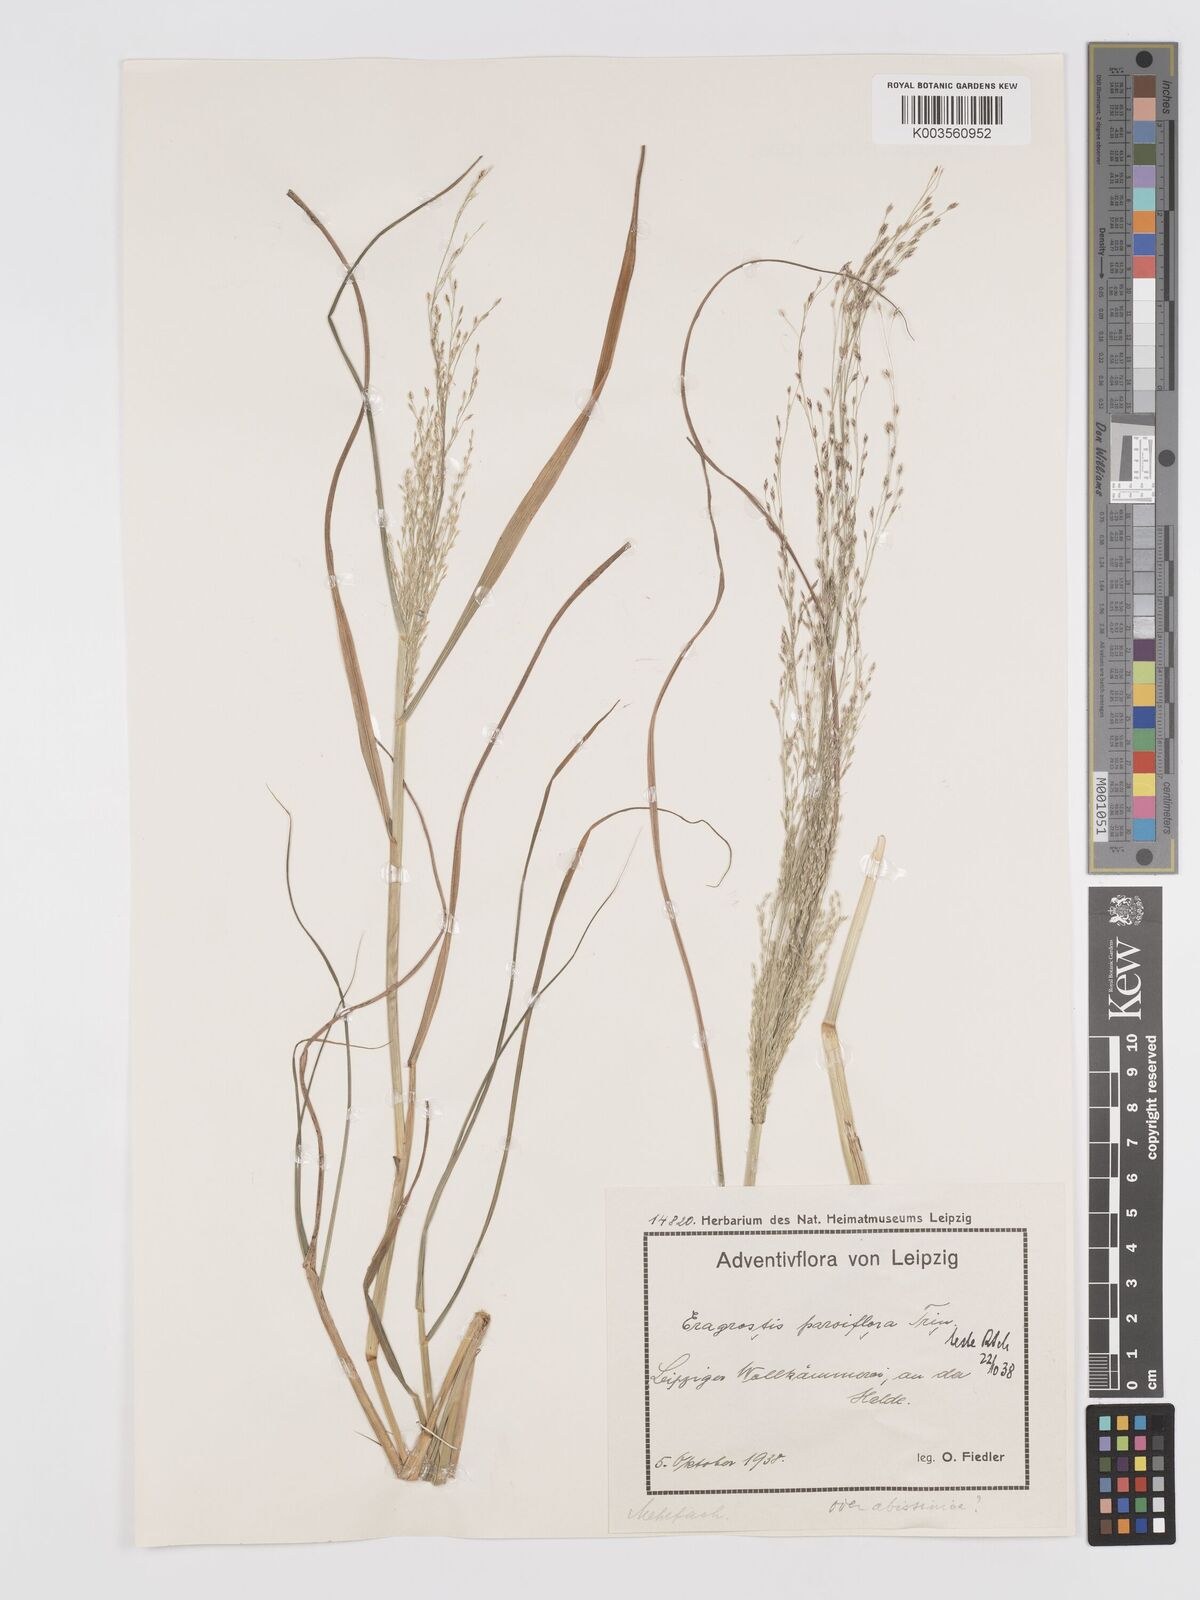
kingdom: Plantae
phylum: Tracheophyta
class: Liliopsida
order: Poales
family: Poaceae
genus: Eragrostis
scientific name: Eragrostis parviflora
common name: Weeping love-grass
